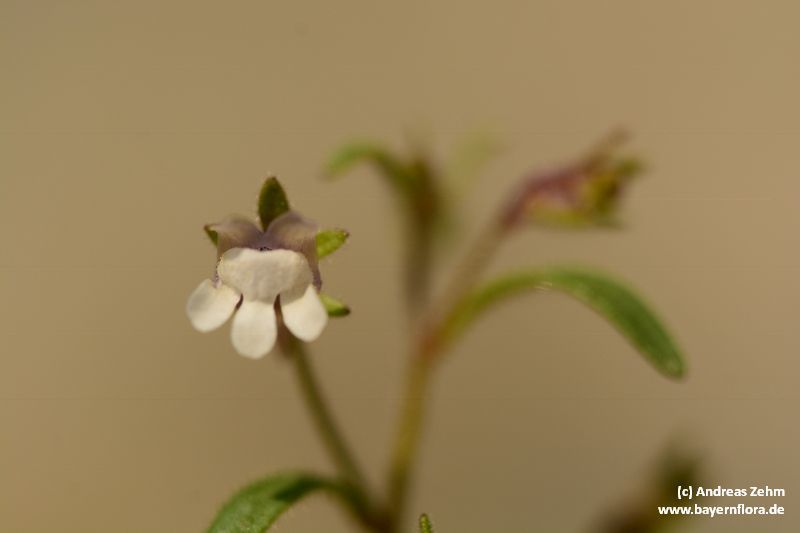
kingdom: Plantae
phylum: Tracheophyta
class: Magnoliopsida
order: Lamiales
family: Plantaginaceae
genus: Chaenorhinum
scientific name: Chaenorhinum minus
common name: Dwarf snapdragon
